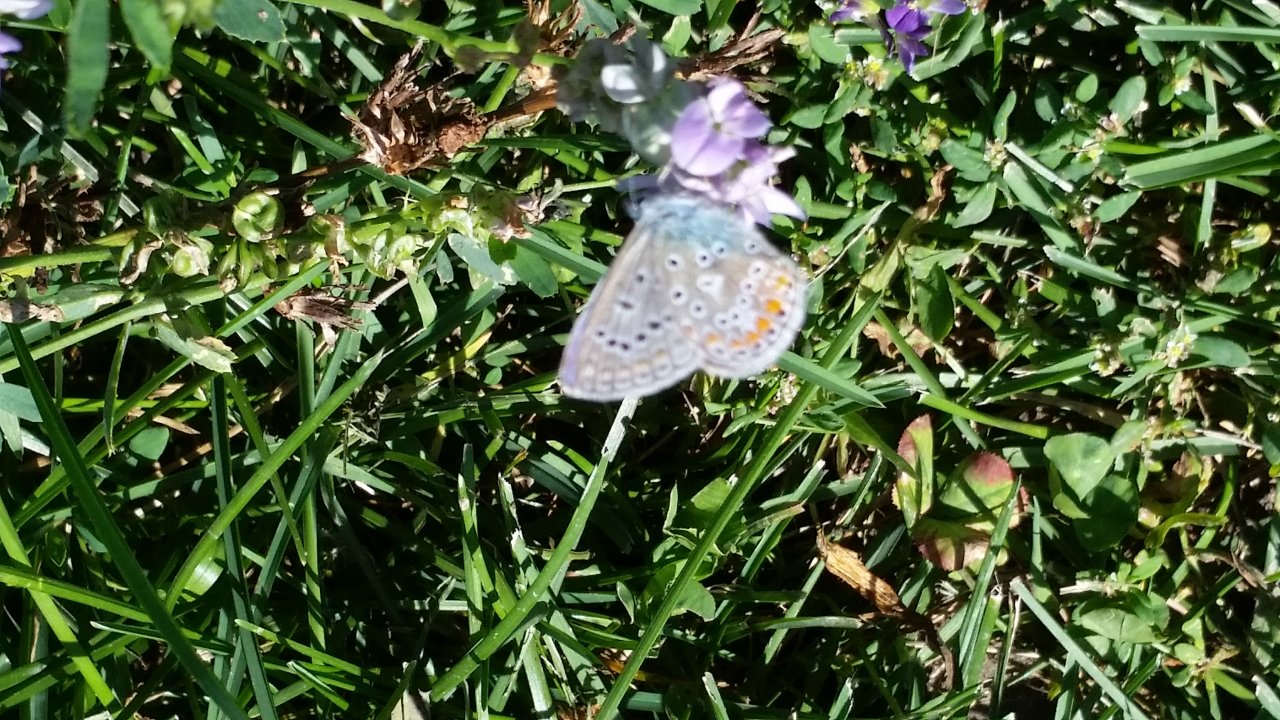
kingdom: Animalia
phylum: Arthropoda
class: Insecta
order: Lepidoptera
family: Lycaenidae
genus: Polyommatus
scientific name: Polyommatus icarus
